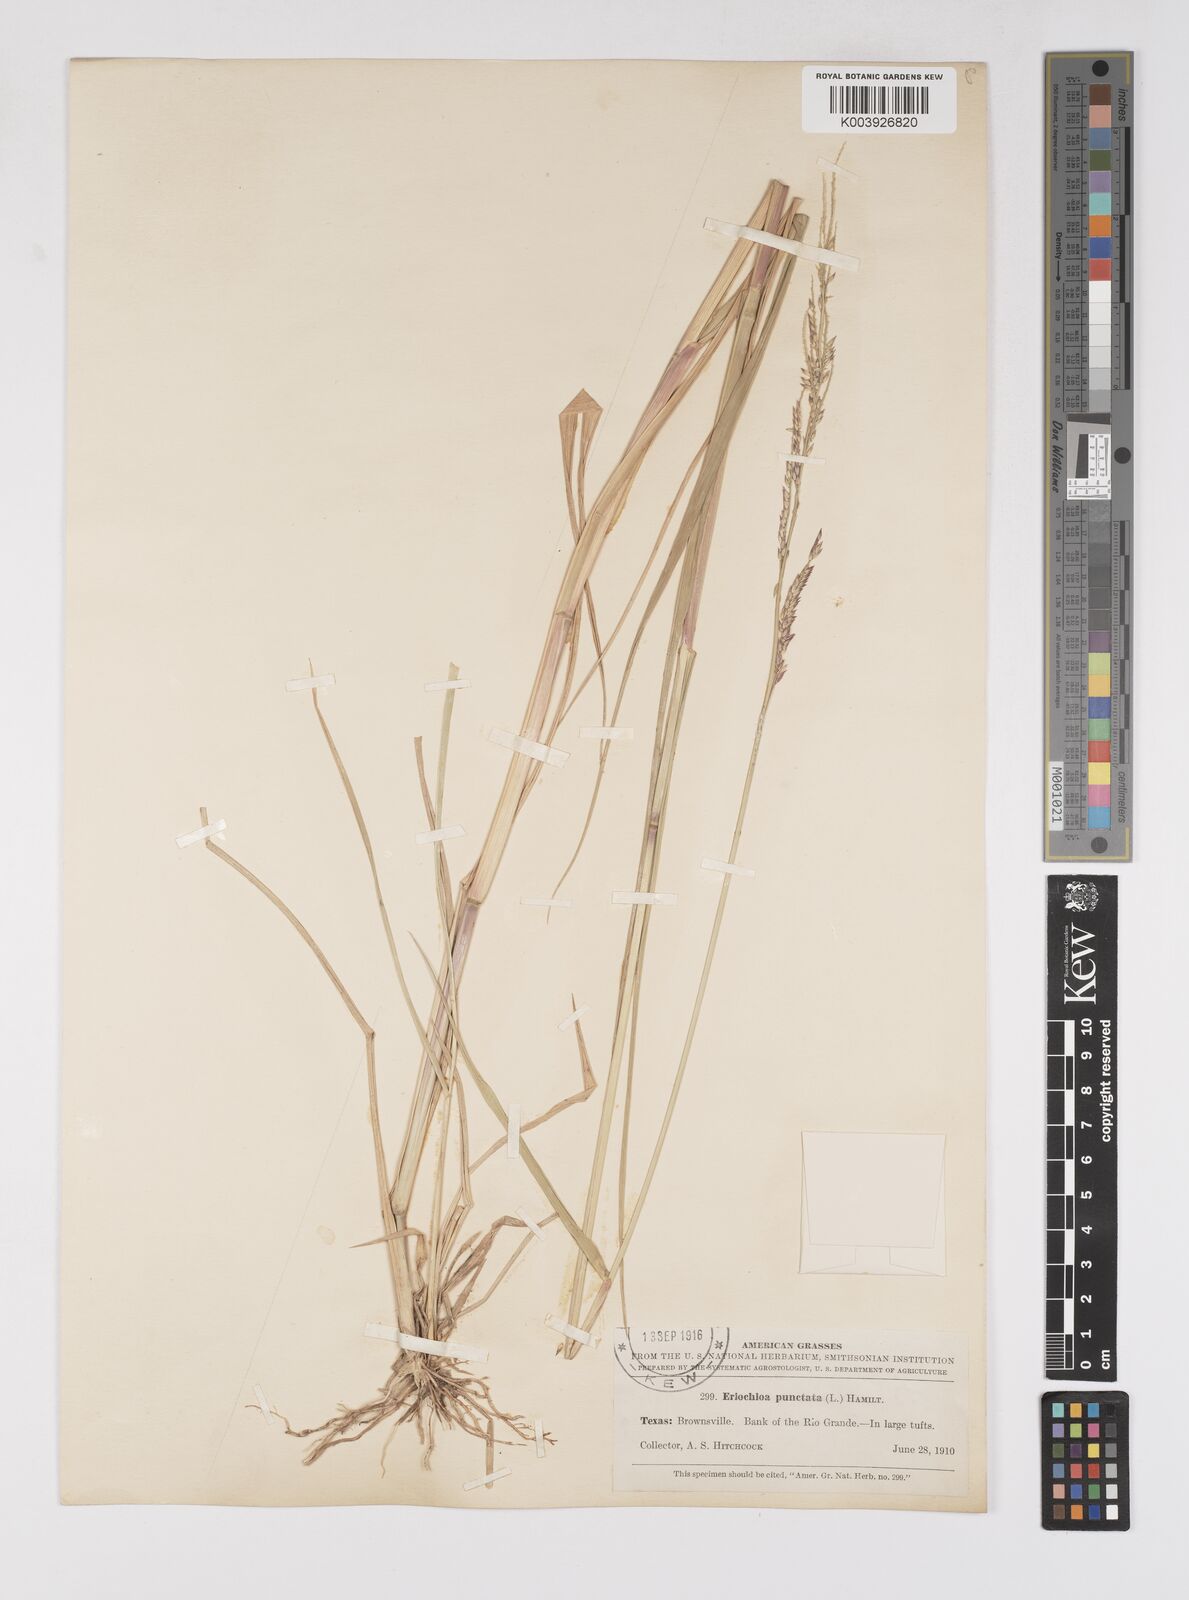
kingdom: Plantae
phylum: Tracheophyta
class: Liliopsida
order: Poales
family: Poaceae
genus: Eriochloa
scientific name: Eriochloa punctata
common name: Louisiana cupgrass
